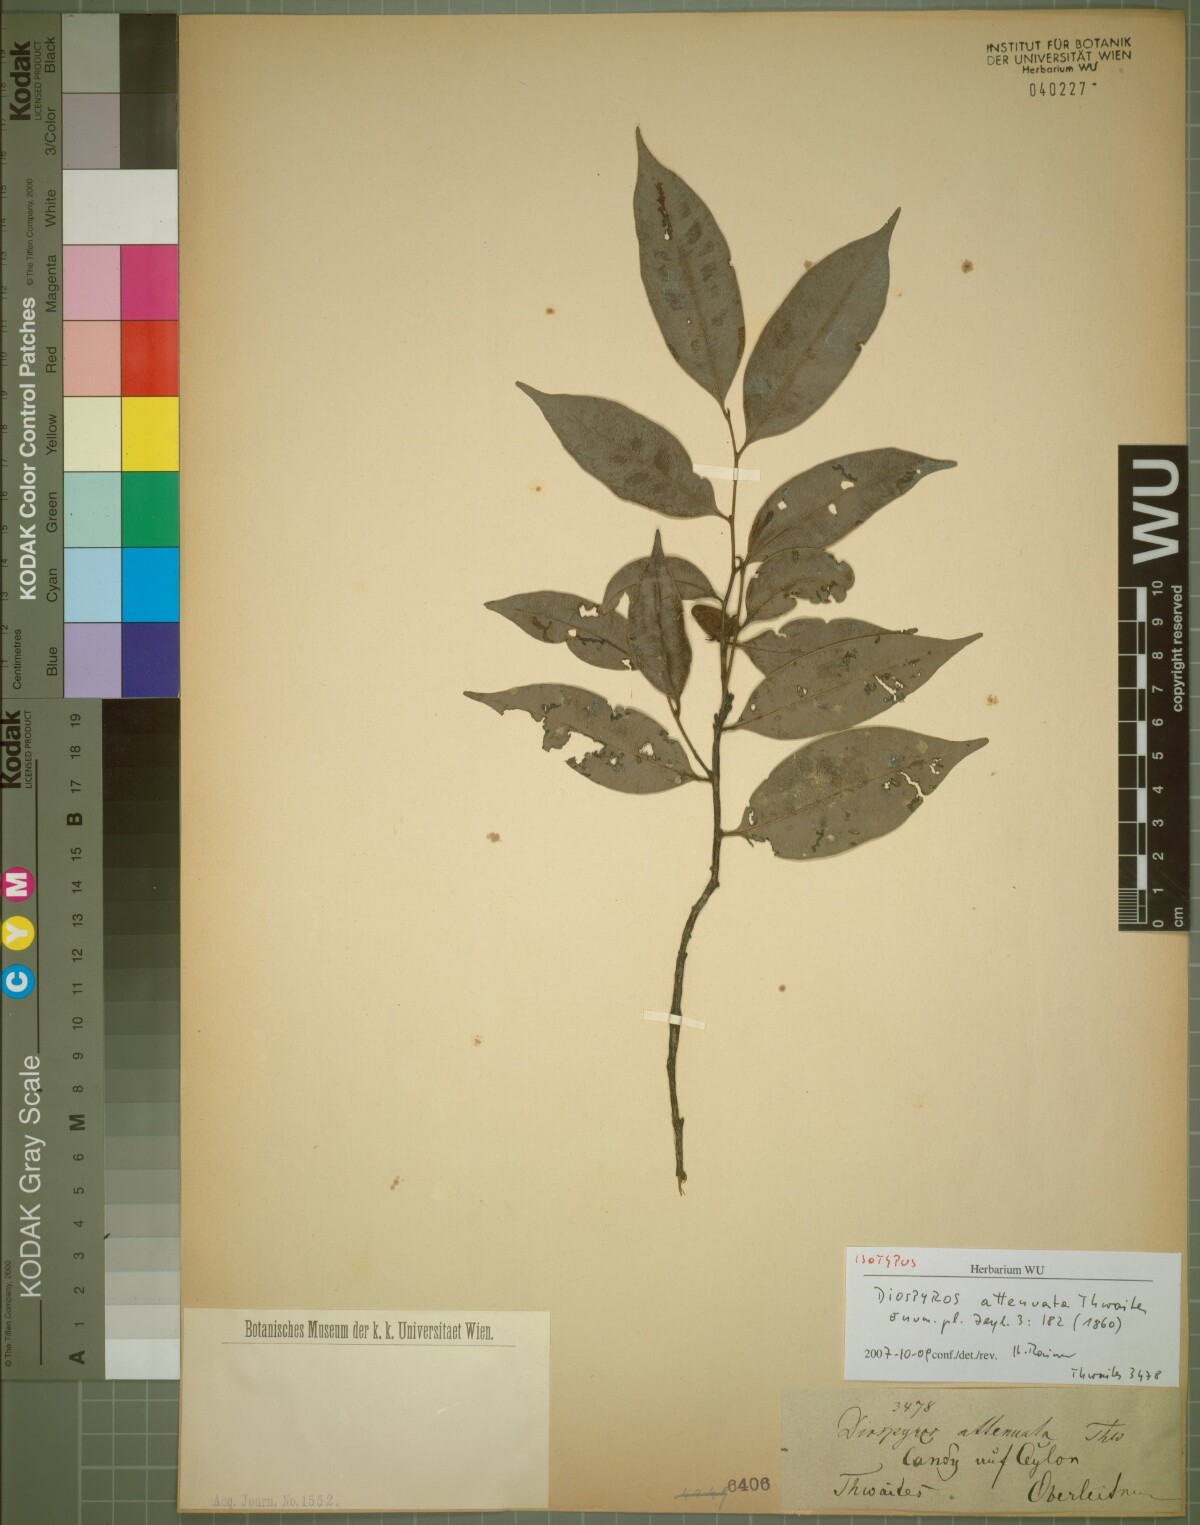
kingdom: Plantae
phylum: Tracheophyta
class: Magnoliopsida
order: Ericales
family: Ebenaceae
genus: Diospyros
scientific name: Diospyros attenuata
